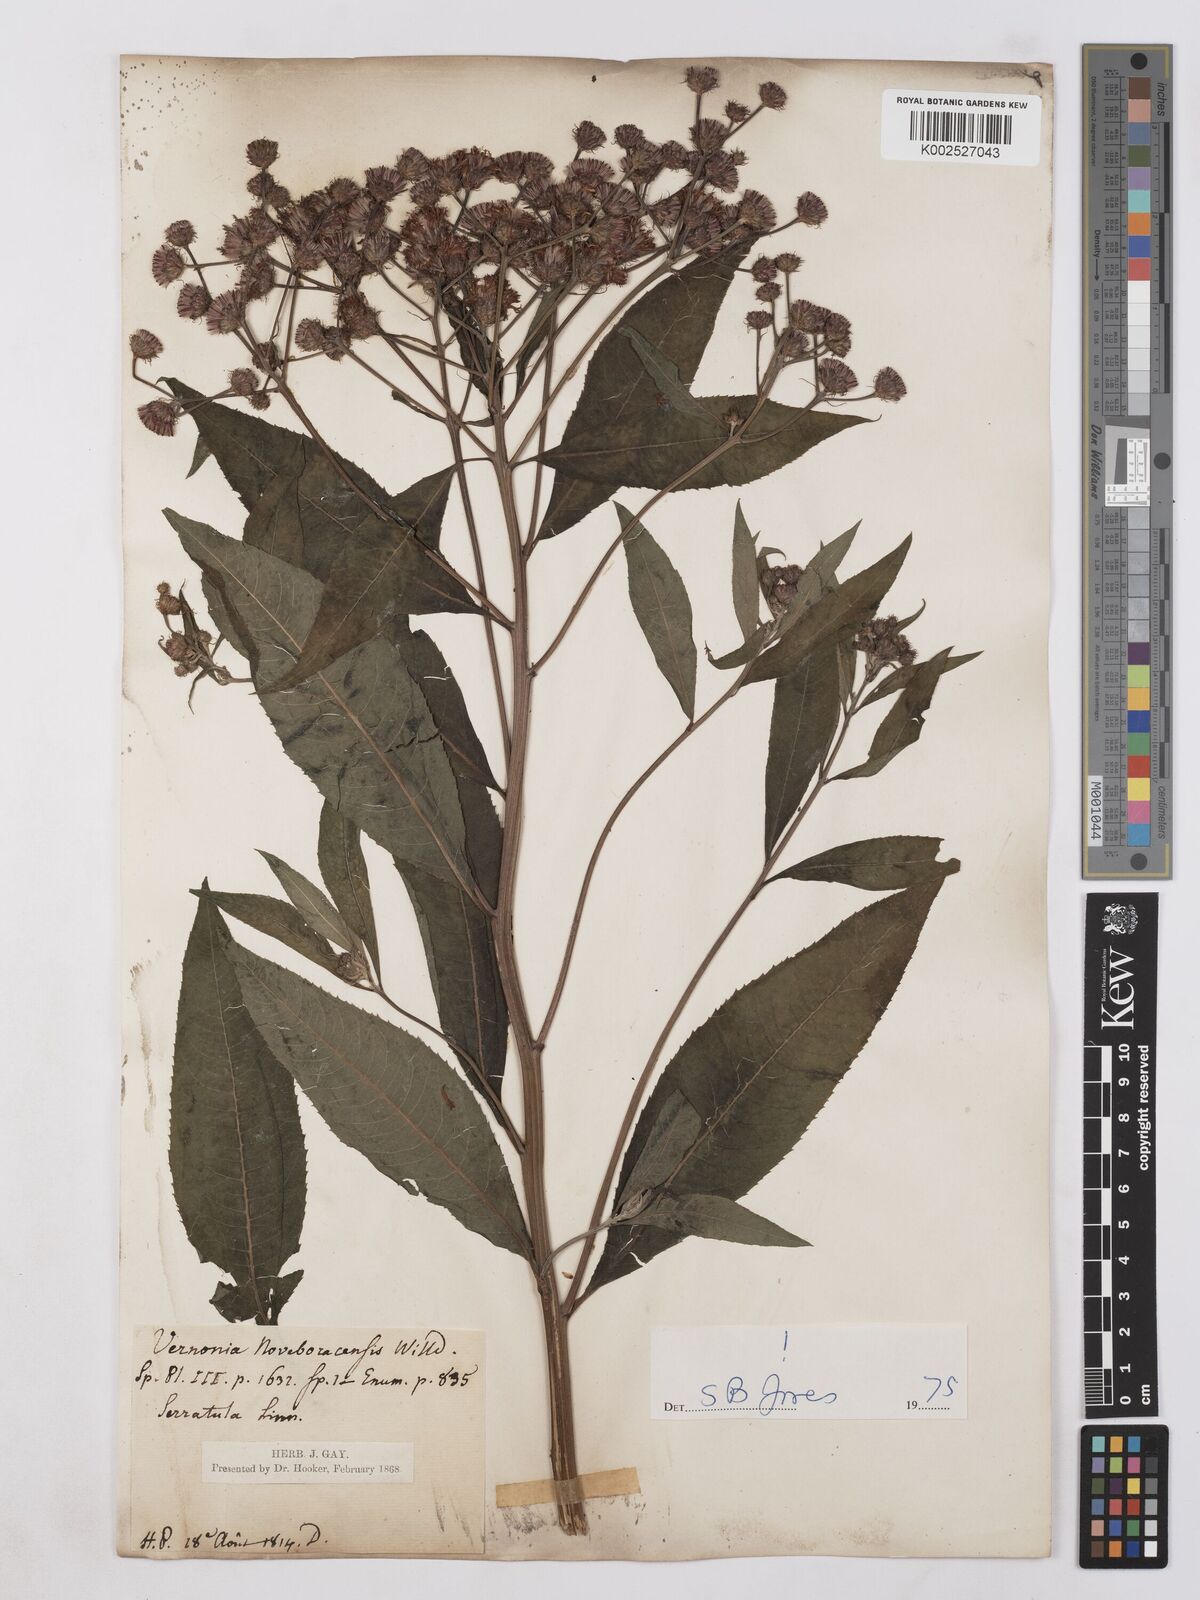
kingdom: Plantae
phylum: Tracheophyta
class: Magnoliopsida
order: Asterales
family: Asteraceae
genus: Vernonia
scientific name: Vernonia
